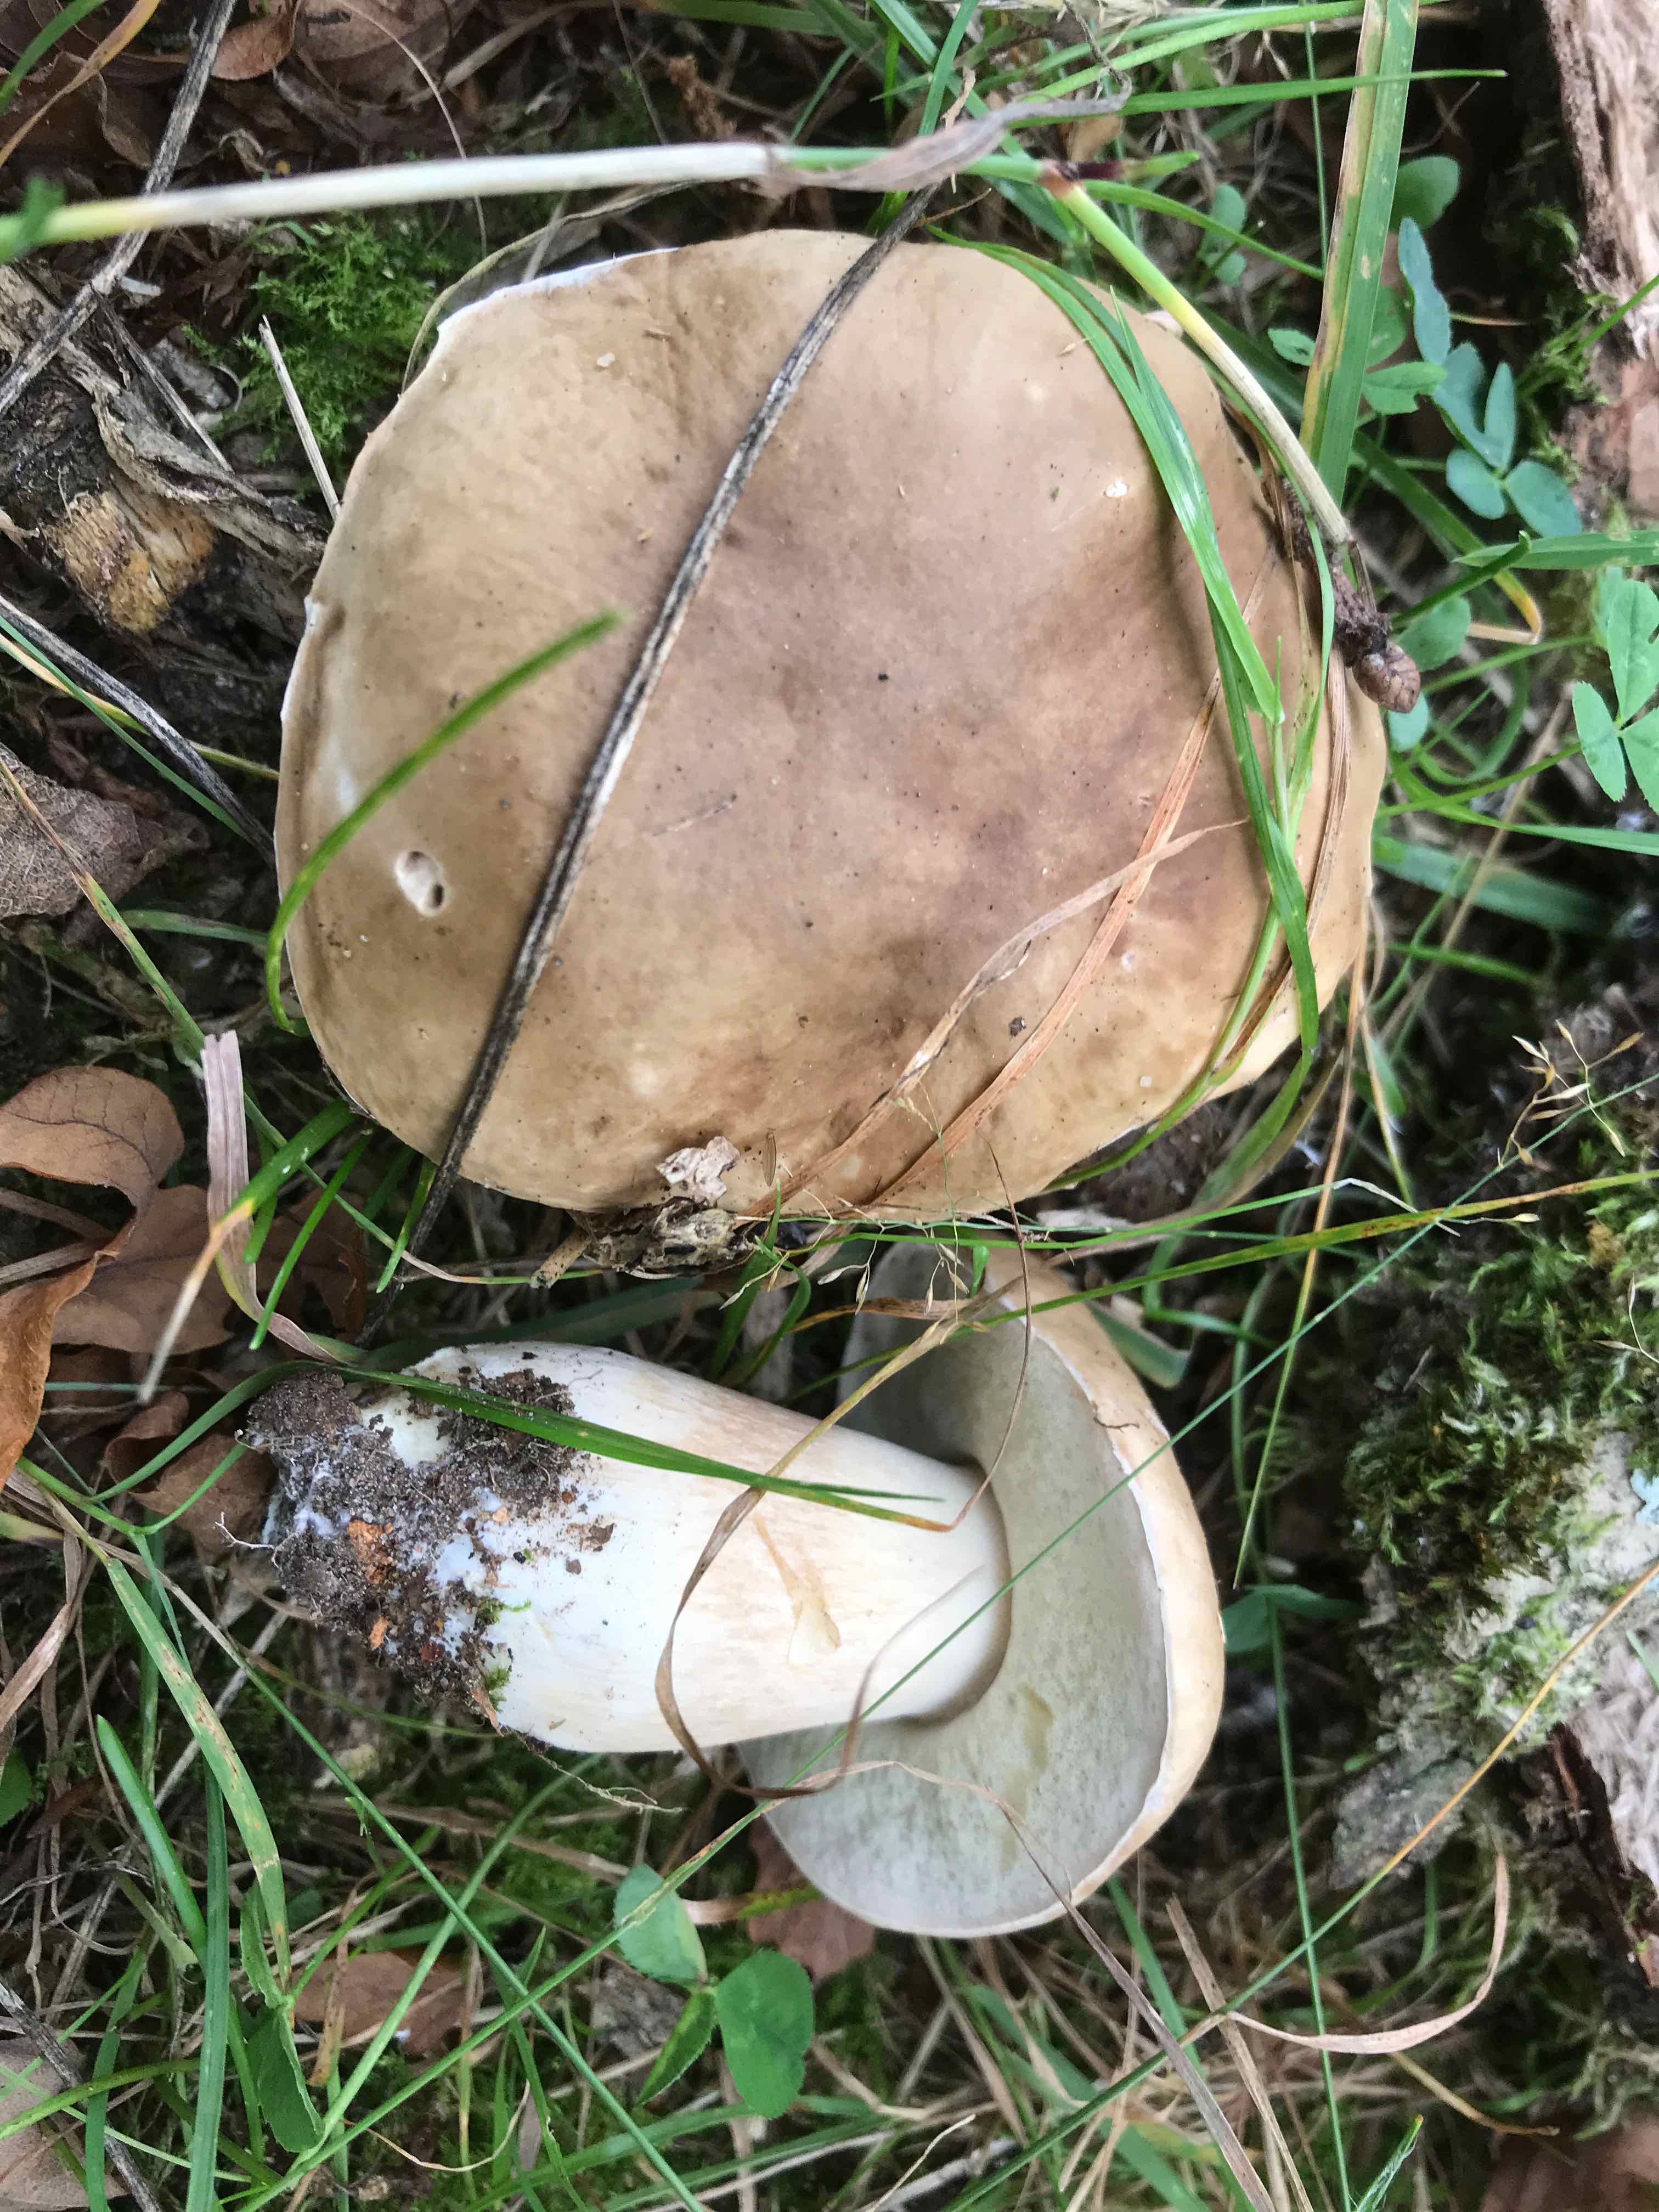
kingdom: Fungi
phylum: Basidiomycota
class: Agaricomycetes
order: Boletales
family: Boletaceae
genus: Boletus
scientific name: Boletus edulis
